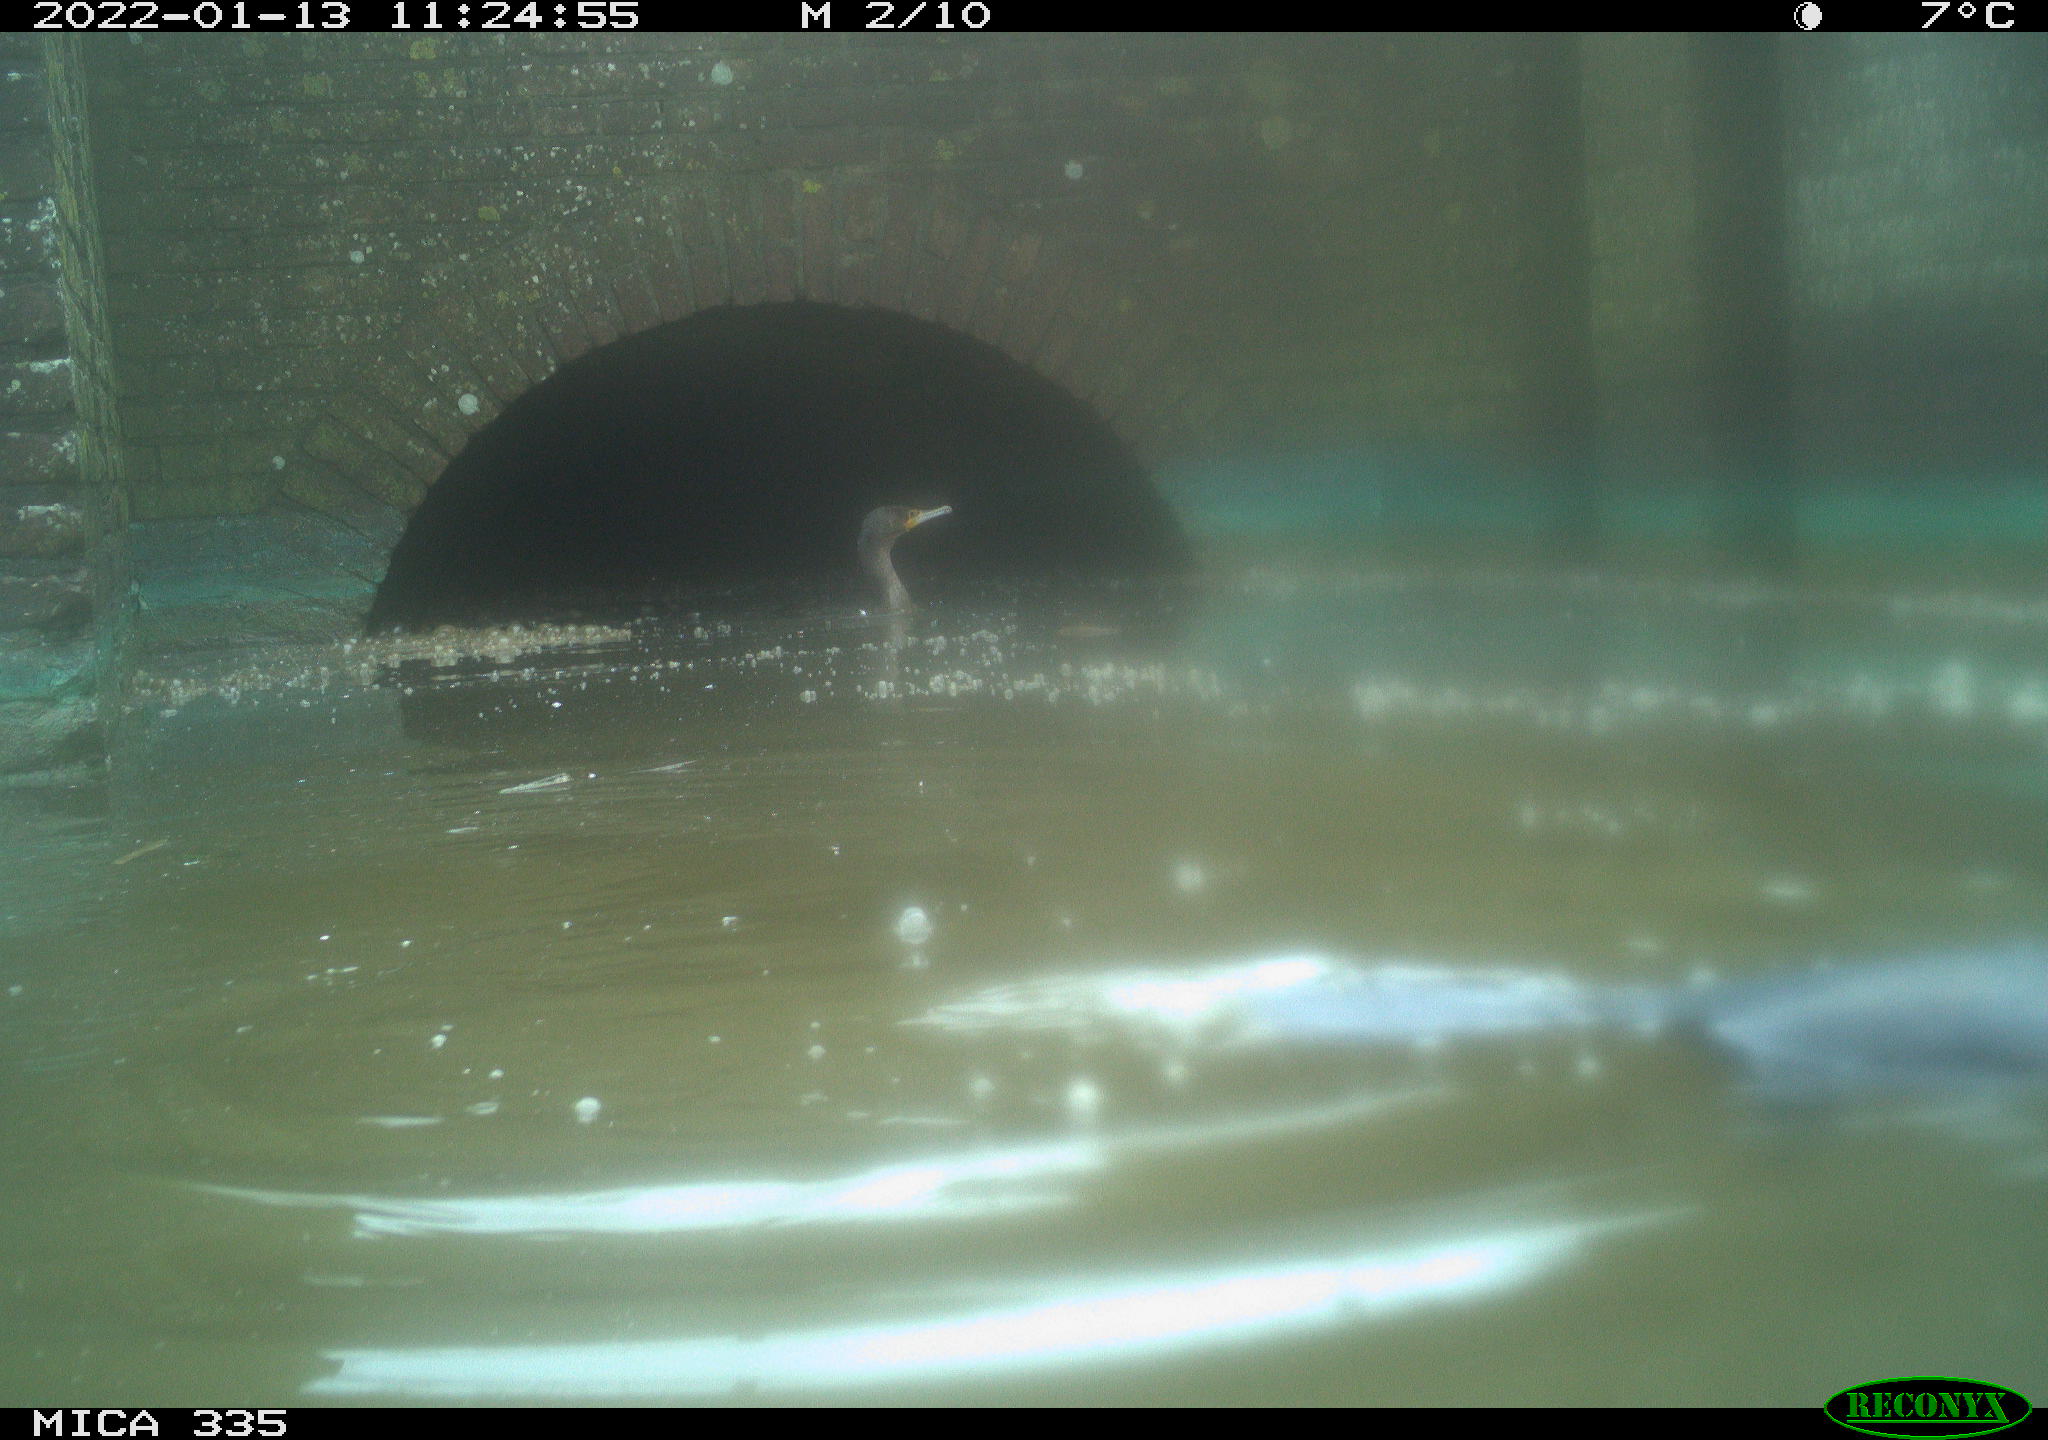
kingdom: Animalia
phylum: Chordata
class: Aves
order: Suliformes
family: Phalacrocoracidae
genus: Phalacrocorax
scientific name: Phalacrocorax carbo
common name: Great cormorant
